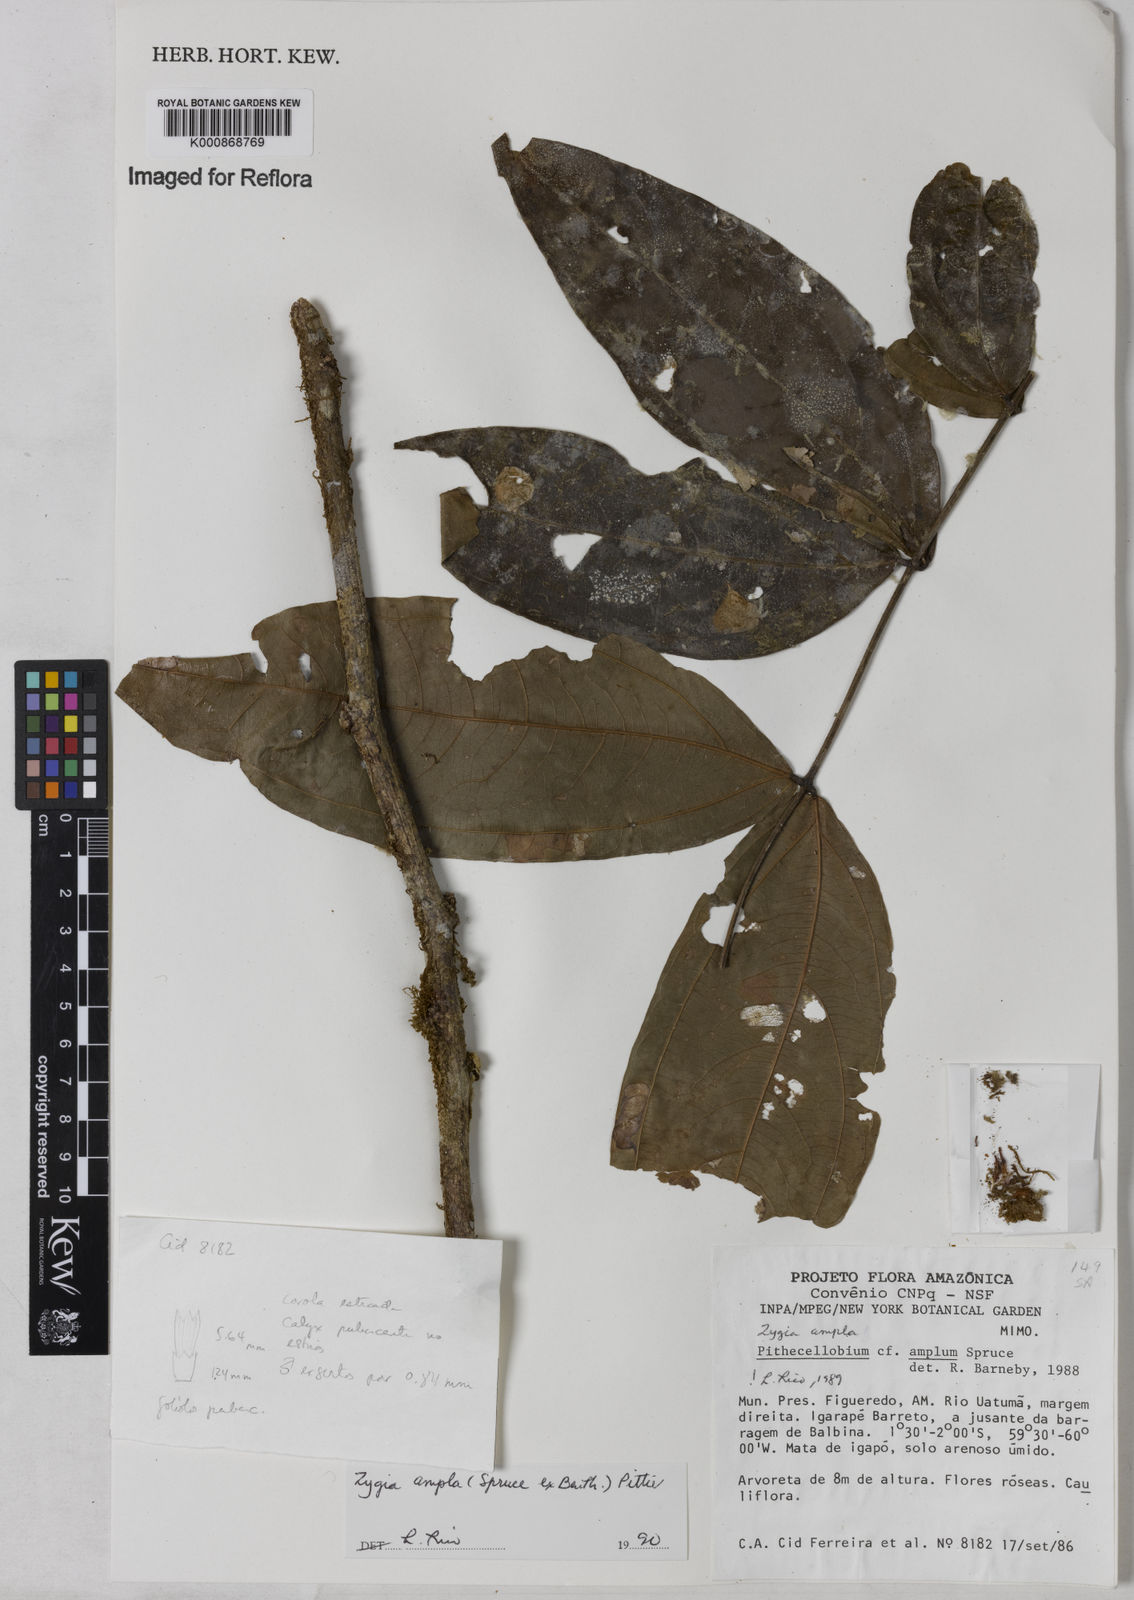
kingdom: Plantae
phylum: Tracheophyta
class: Magnoliopsida
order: Fabales
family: Fabaceae
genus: Zygia
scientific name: Zygia ampla
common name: Jarendeua de sapo
